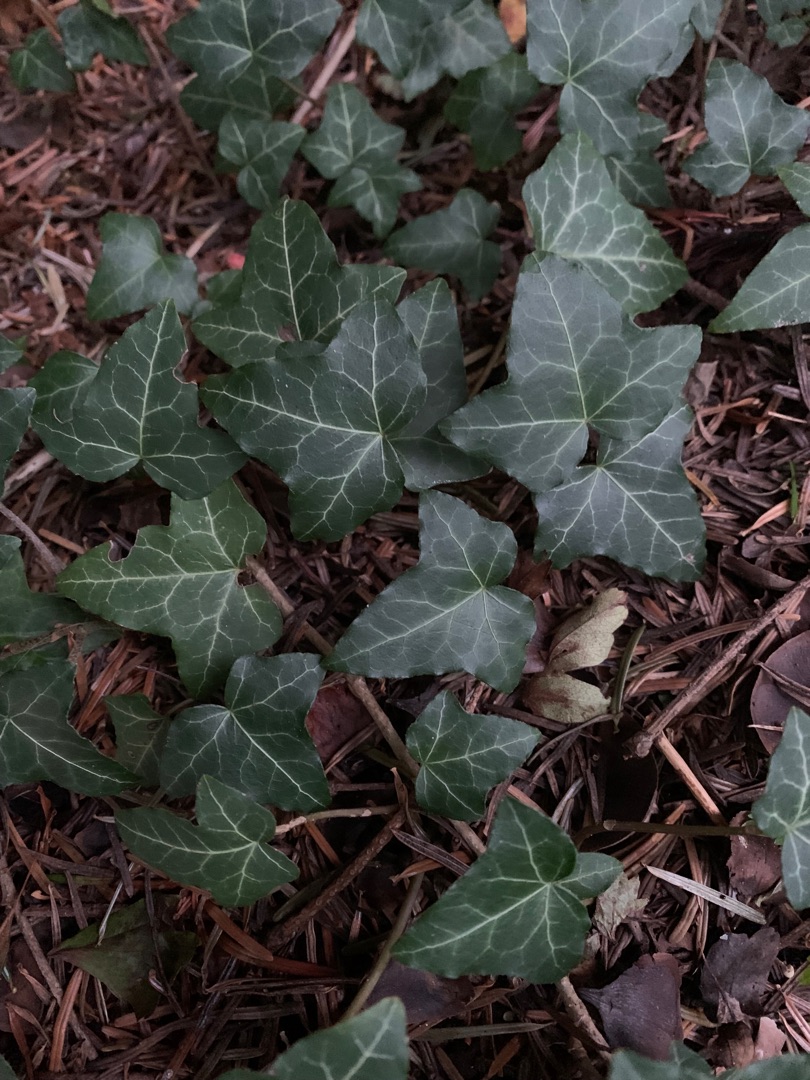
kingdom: Plantae
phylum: Tracheophyta
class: Magnoliopsida
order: Apiales
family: Araliaceae
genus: Hedera
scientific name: Hedera helix
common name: Vedbend
